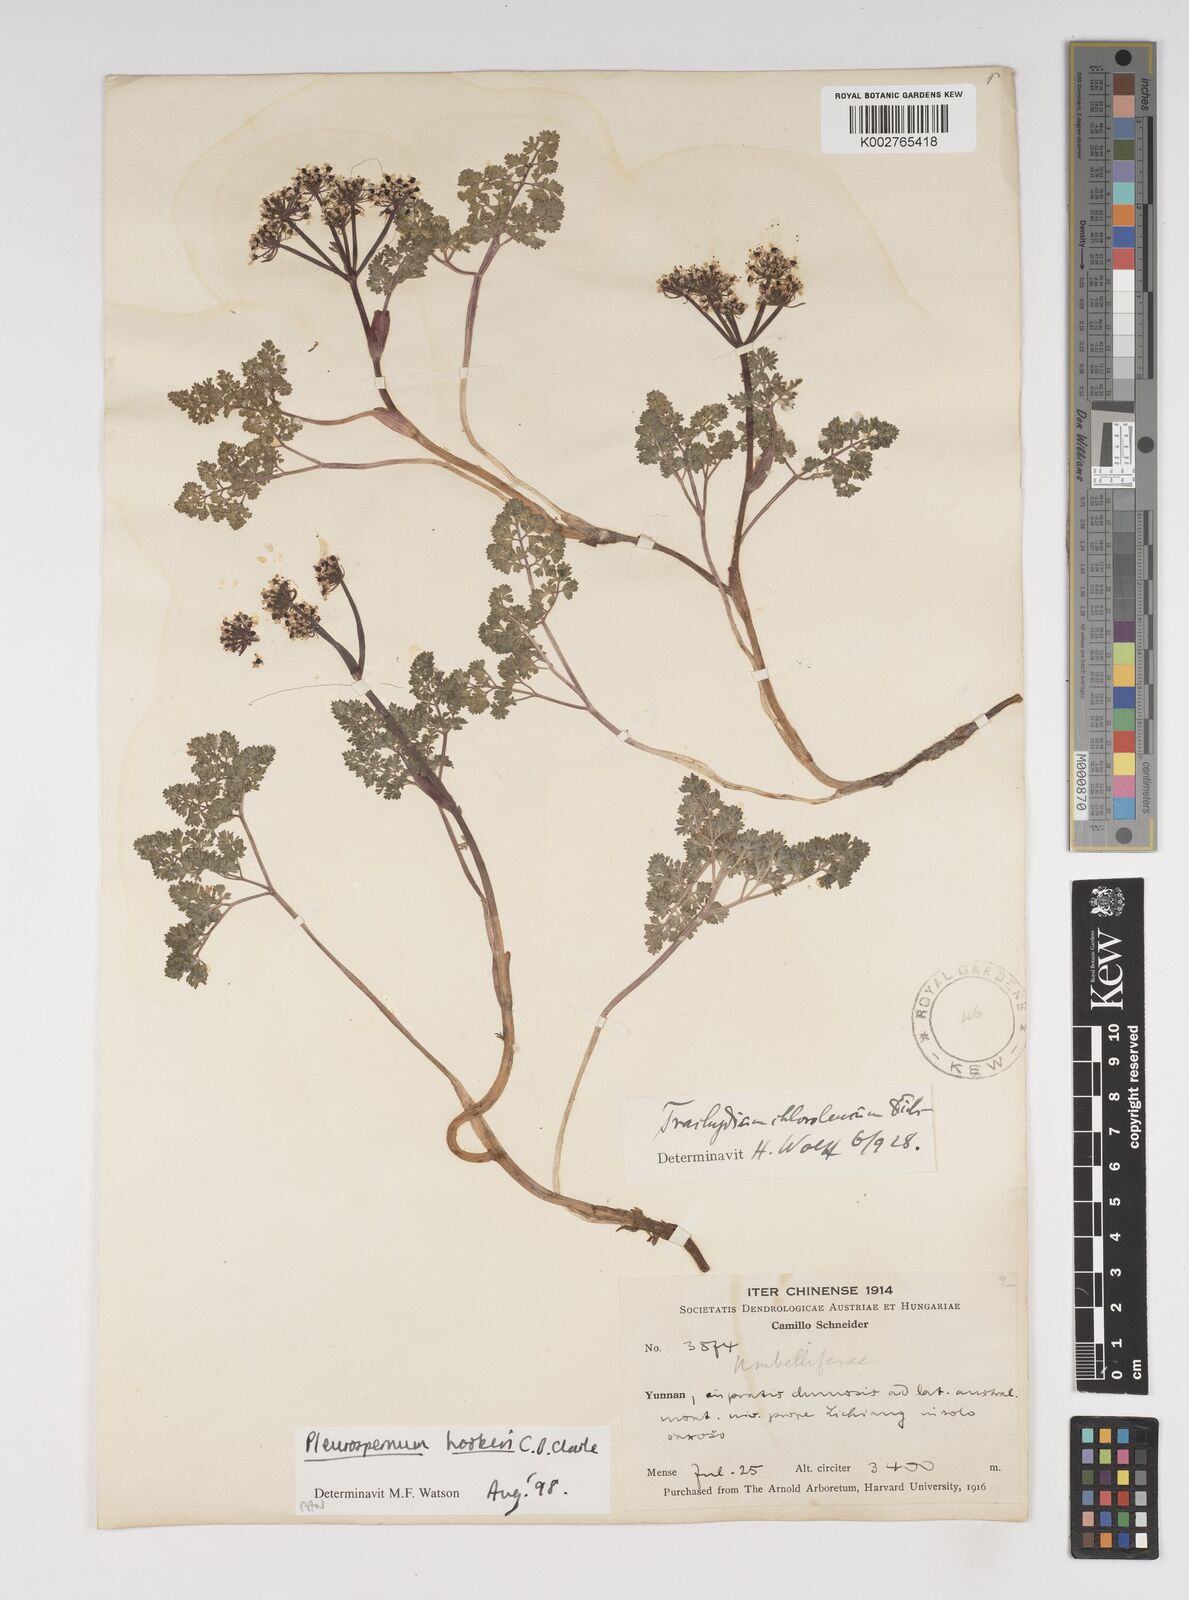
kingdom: Plantae
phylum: Tracheophyta
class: Magnoliopsida
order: Apiales
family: Apiaceae
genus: Pleurospermum
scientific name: Pleurospermum hookeri
